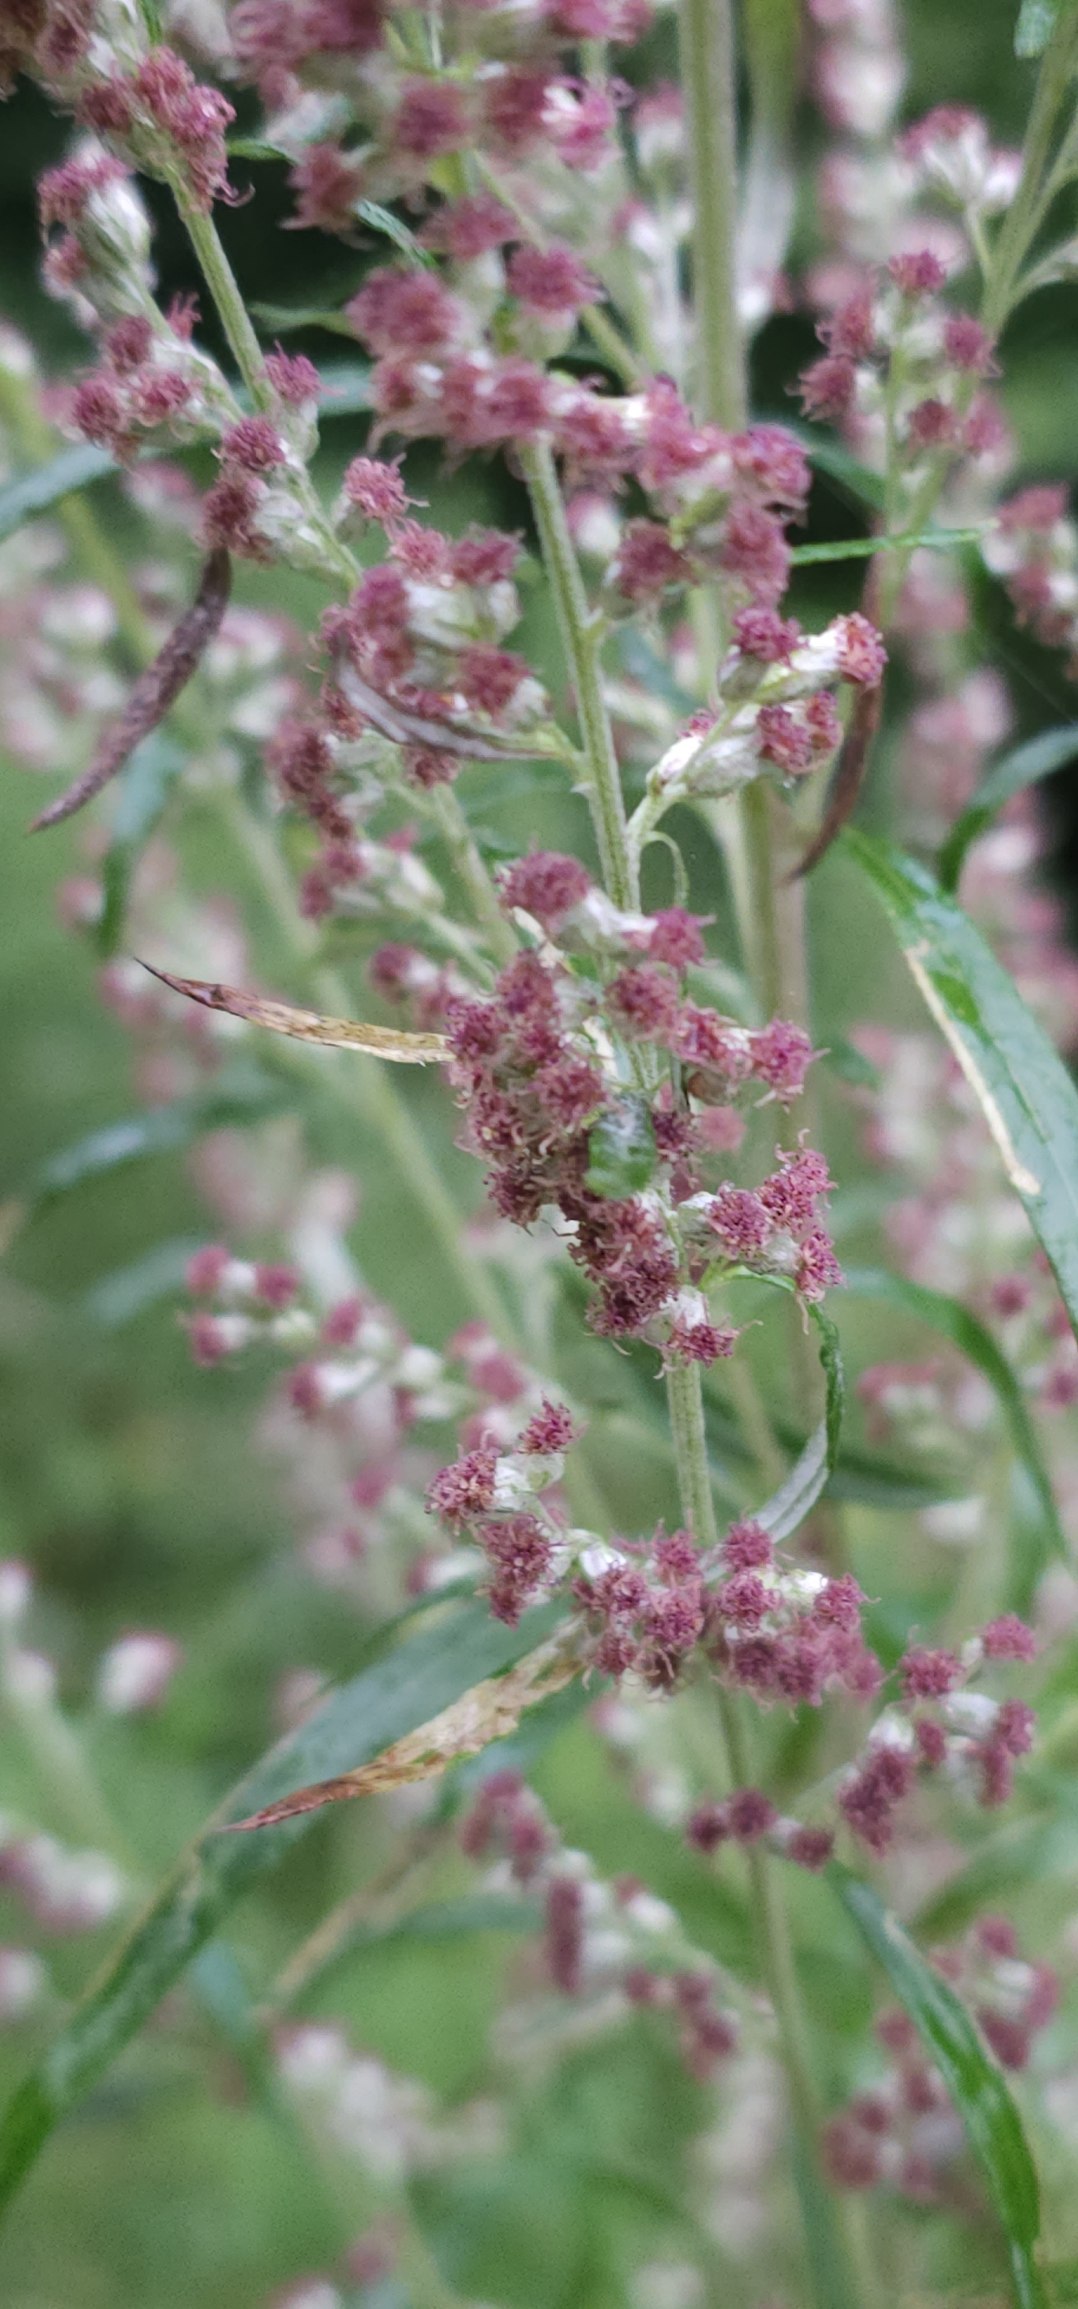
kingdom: Plantae
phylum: Tracheophyta
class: Magnoliopsida
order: Asterales
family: Asteraceae
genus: Artemisia
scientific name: Artemisia vulgaris
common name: Grå-bynke
